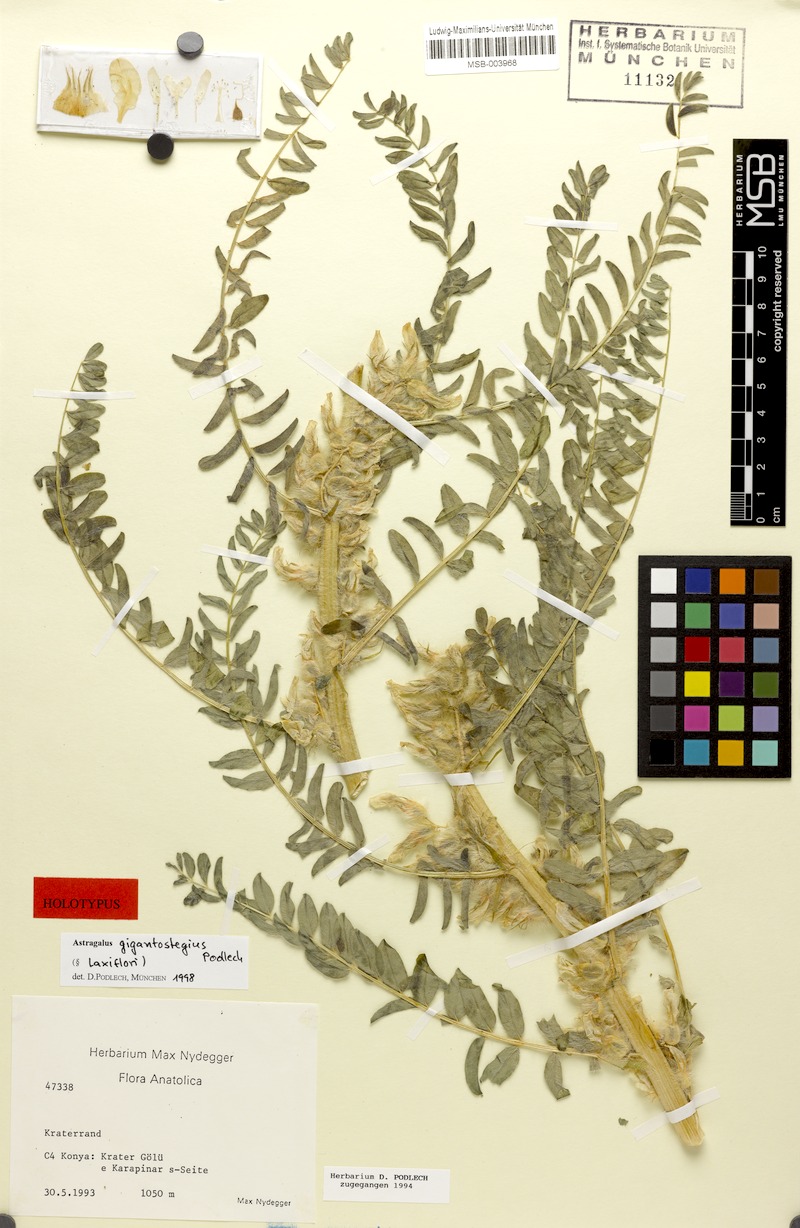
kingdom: Plantae
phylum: Tracheophyta
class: Magnoliopsida
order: Fabales
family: Fabaceae
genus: Astragalus
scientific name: Astragalus gigantostegius
